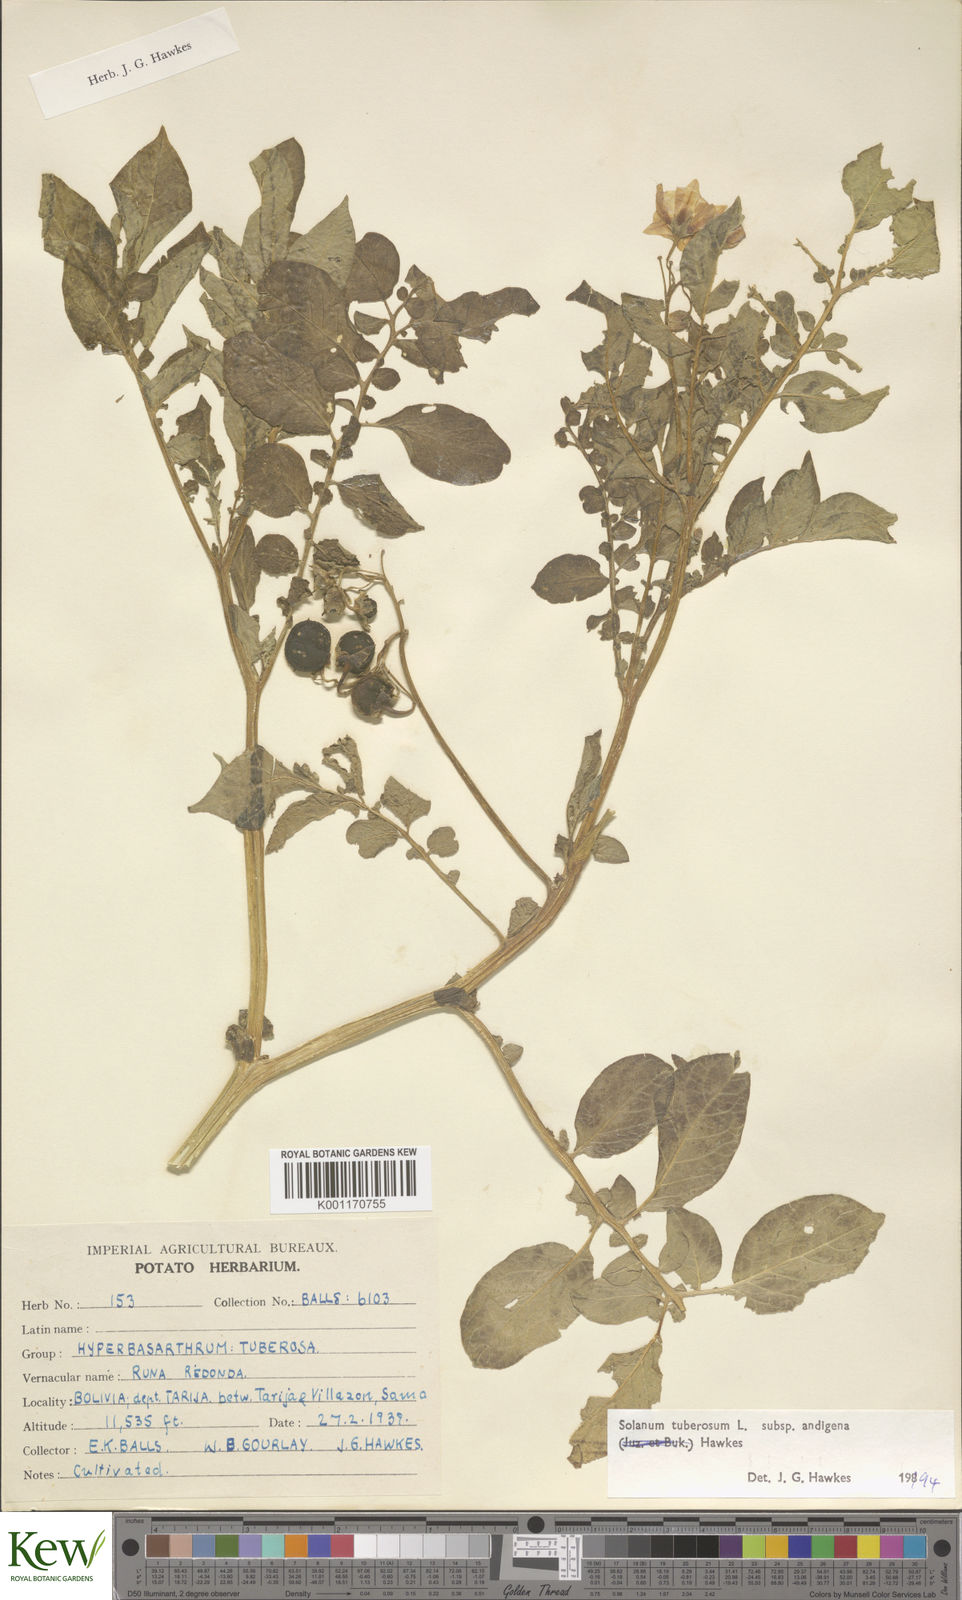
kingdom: Plantae
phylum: Tracheophyta
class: Magnoliopsida
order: Solanales
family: Solanaceae
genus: Solanum
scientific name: Solanum tuberosum
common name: Potato
